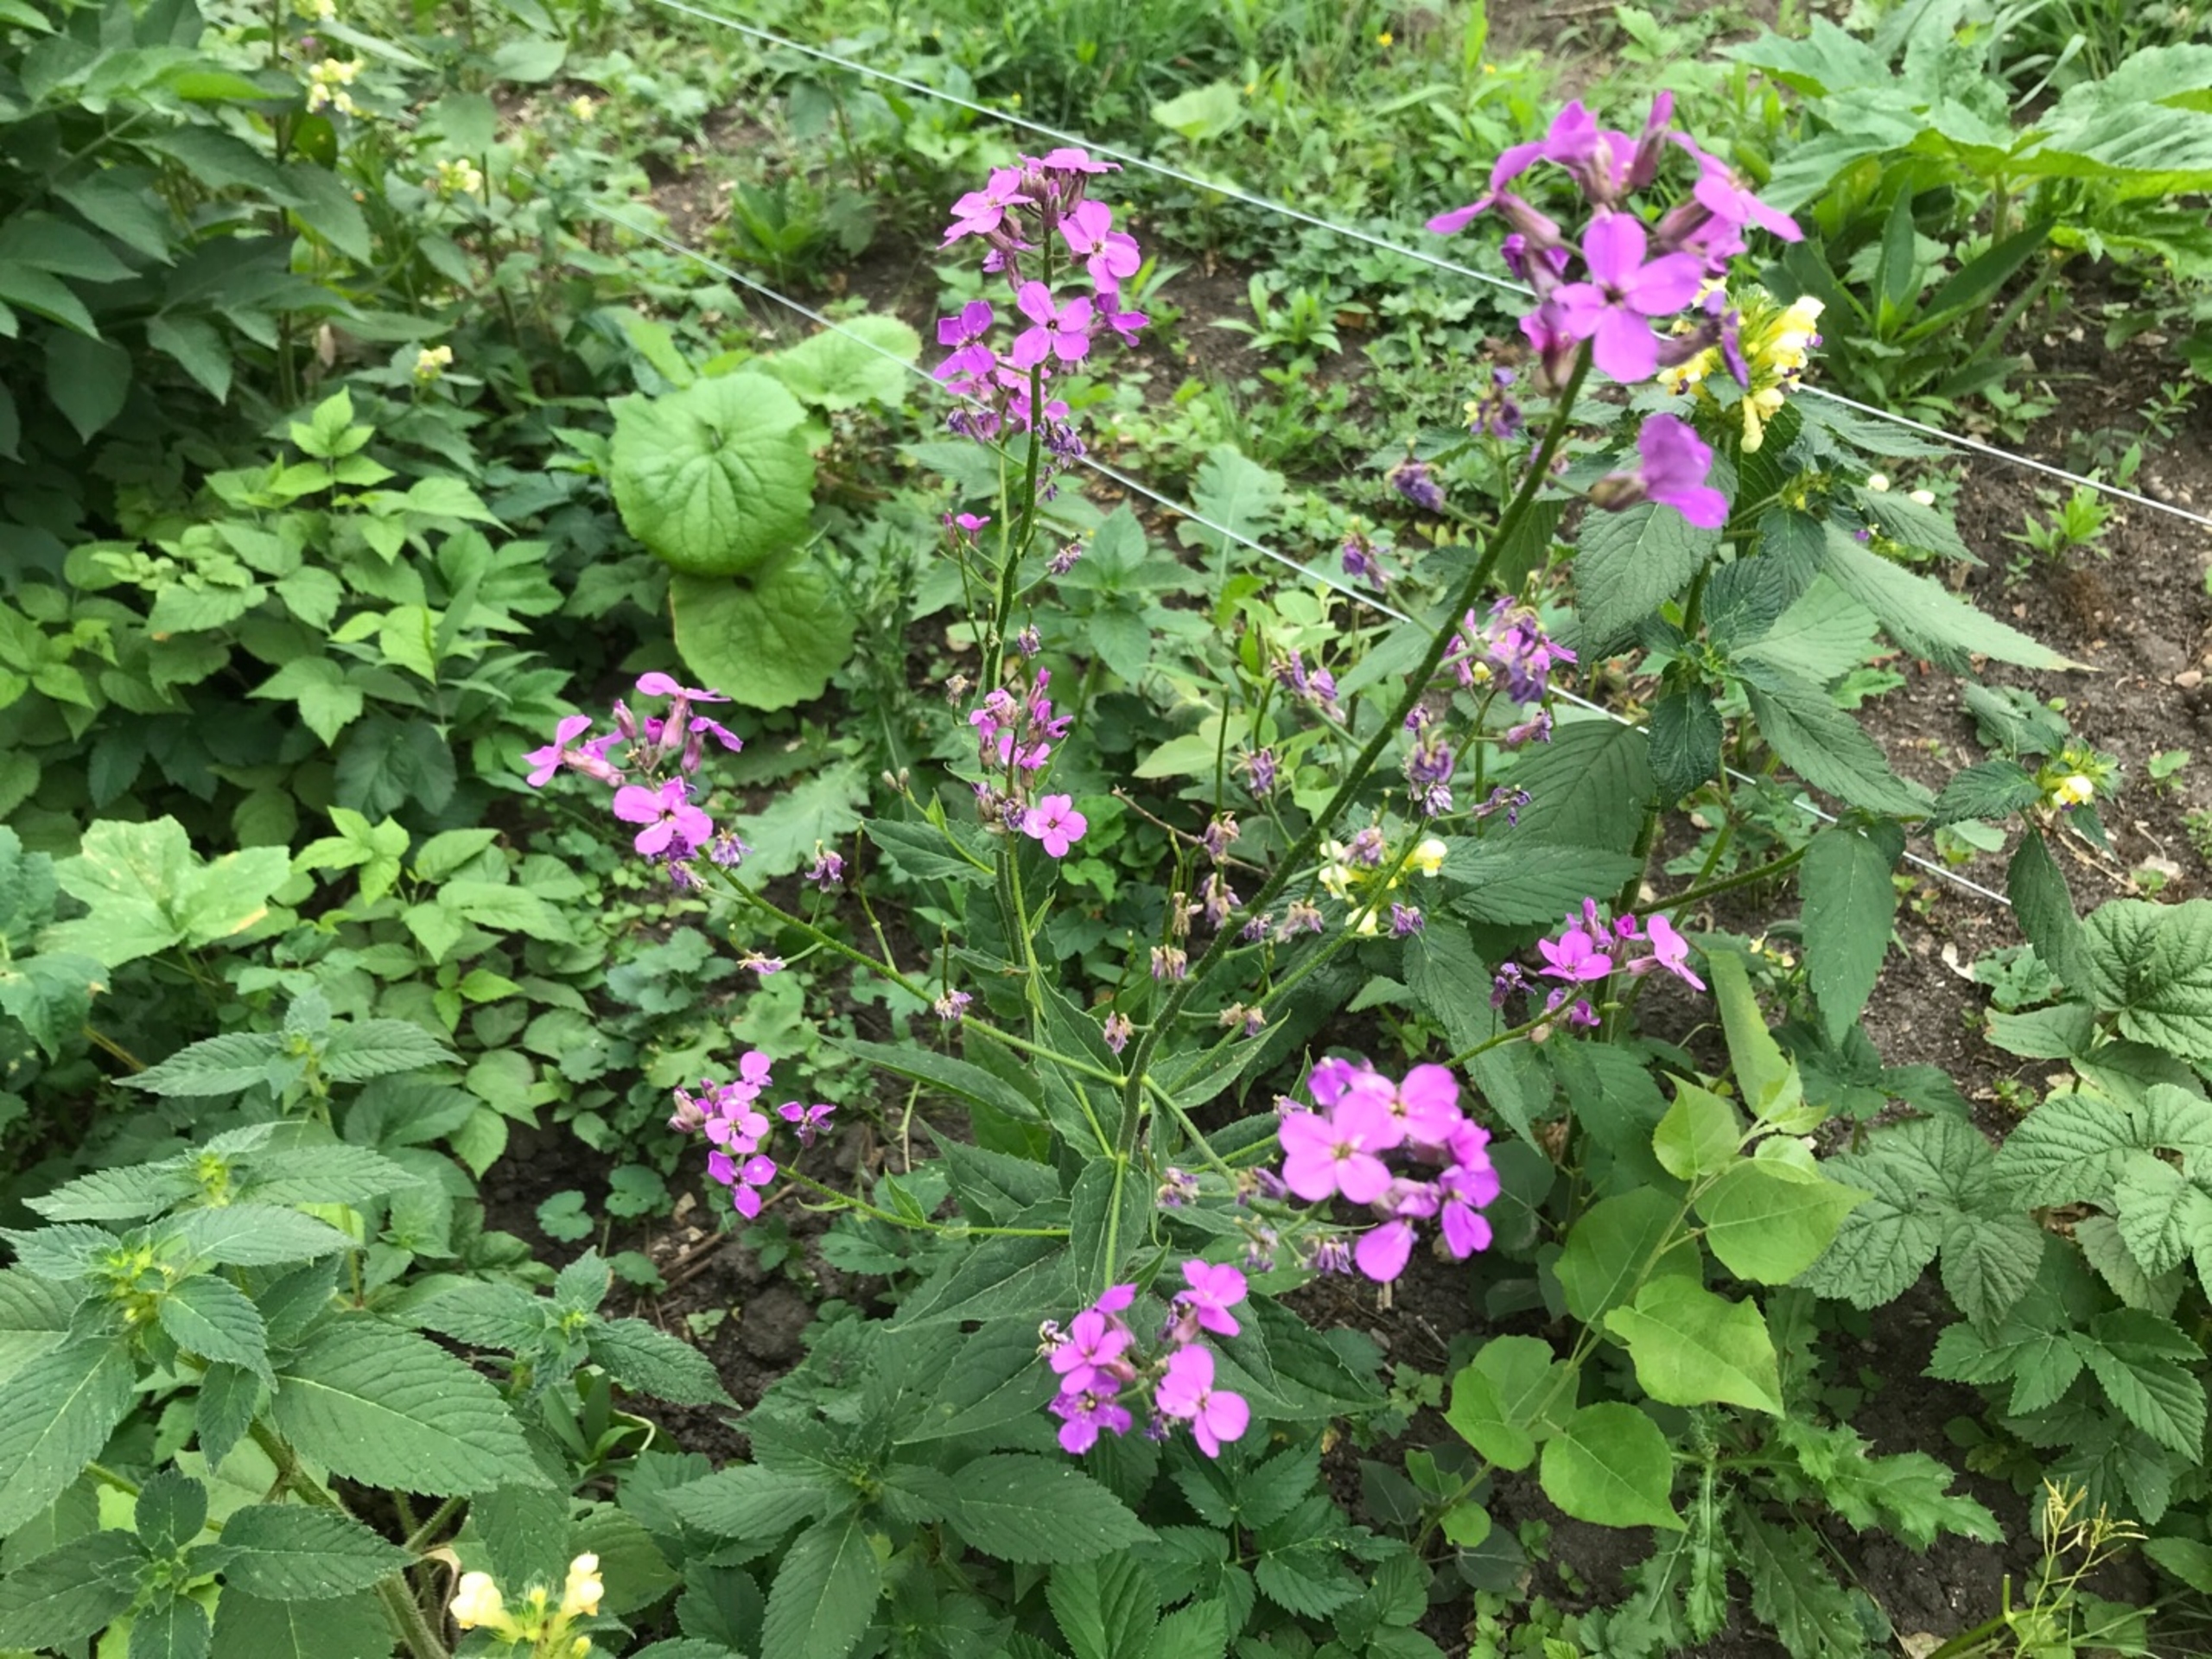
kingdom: Plantae
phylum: Tracheophyta
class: Magnoliopsida
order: Brassicales
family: Brassicaceae
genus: Hesperis
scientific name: Hesperis matronalis
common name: Aftenstjerne
